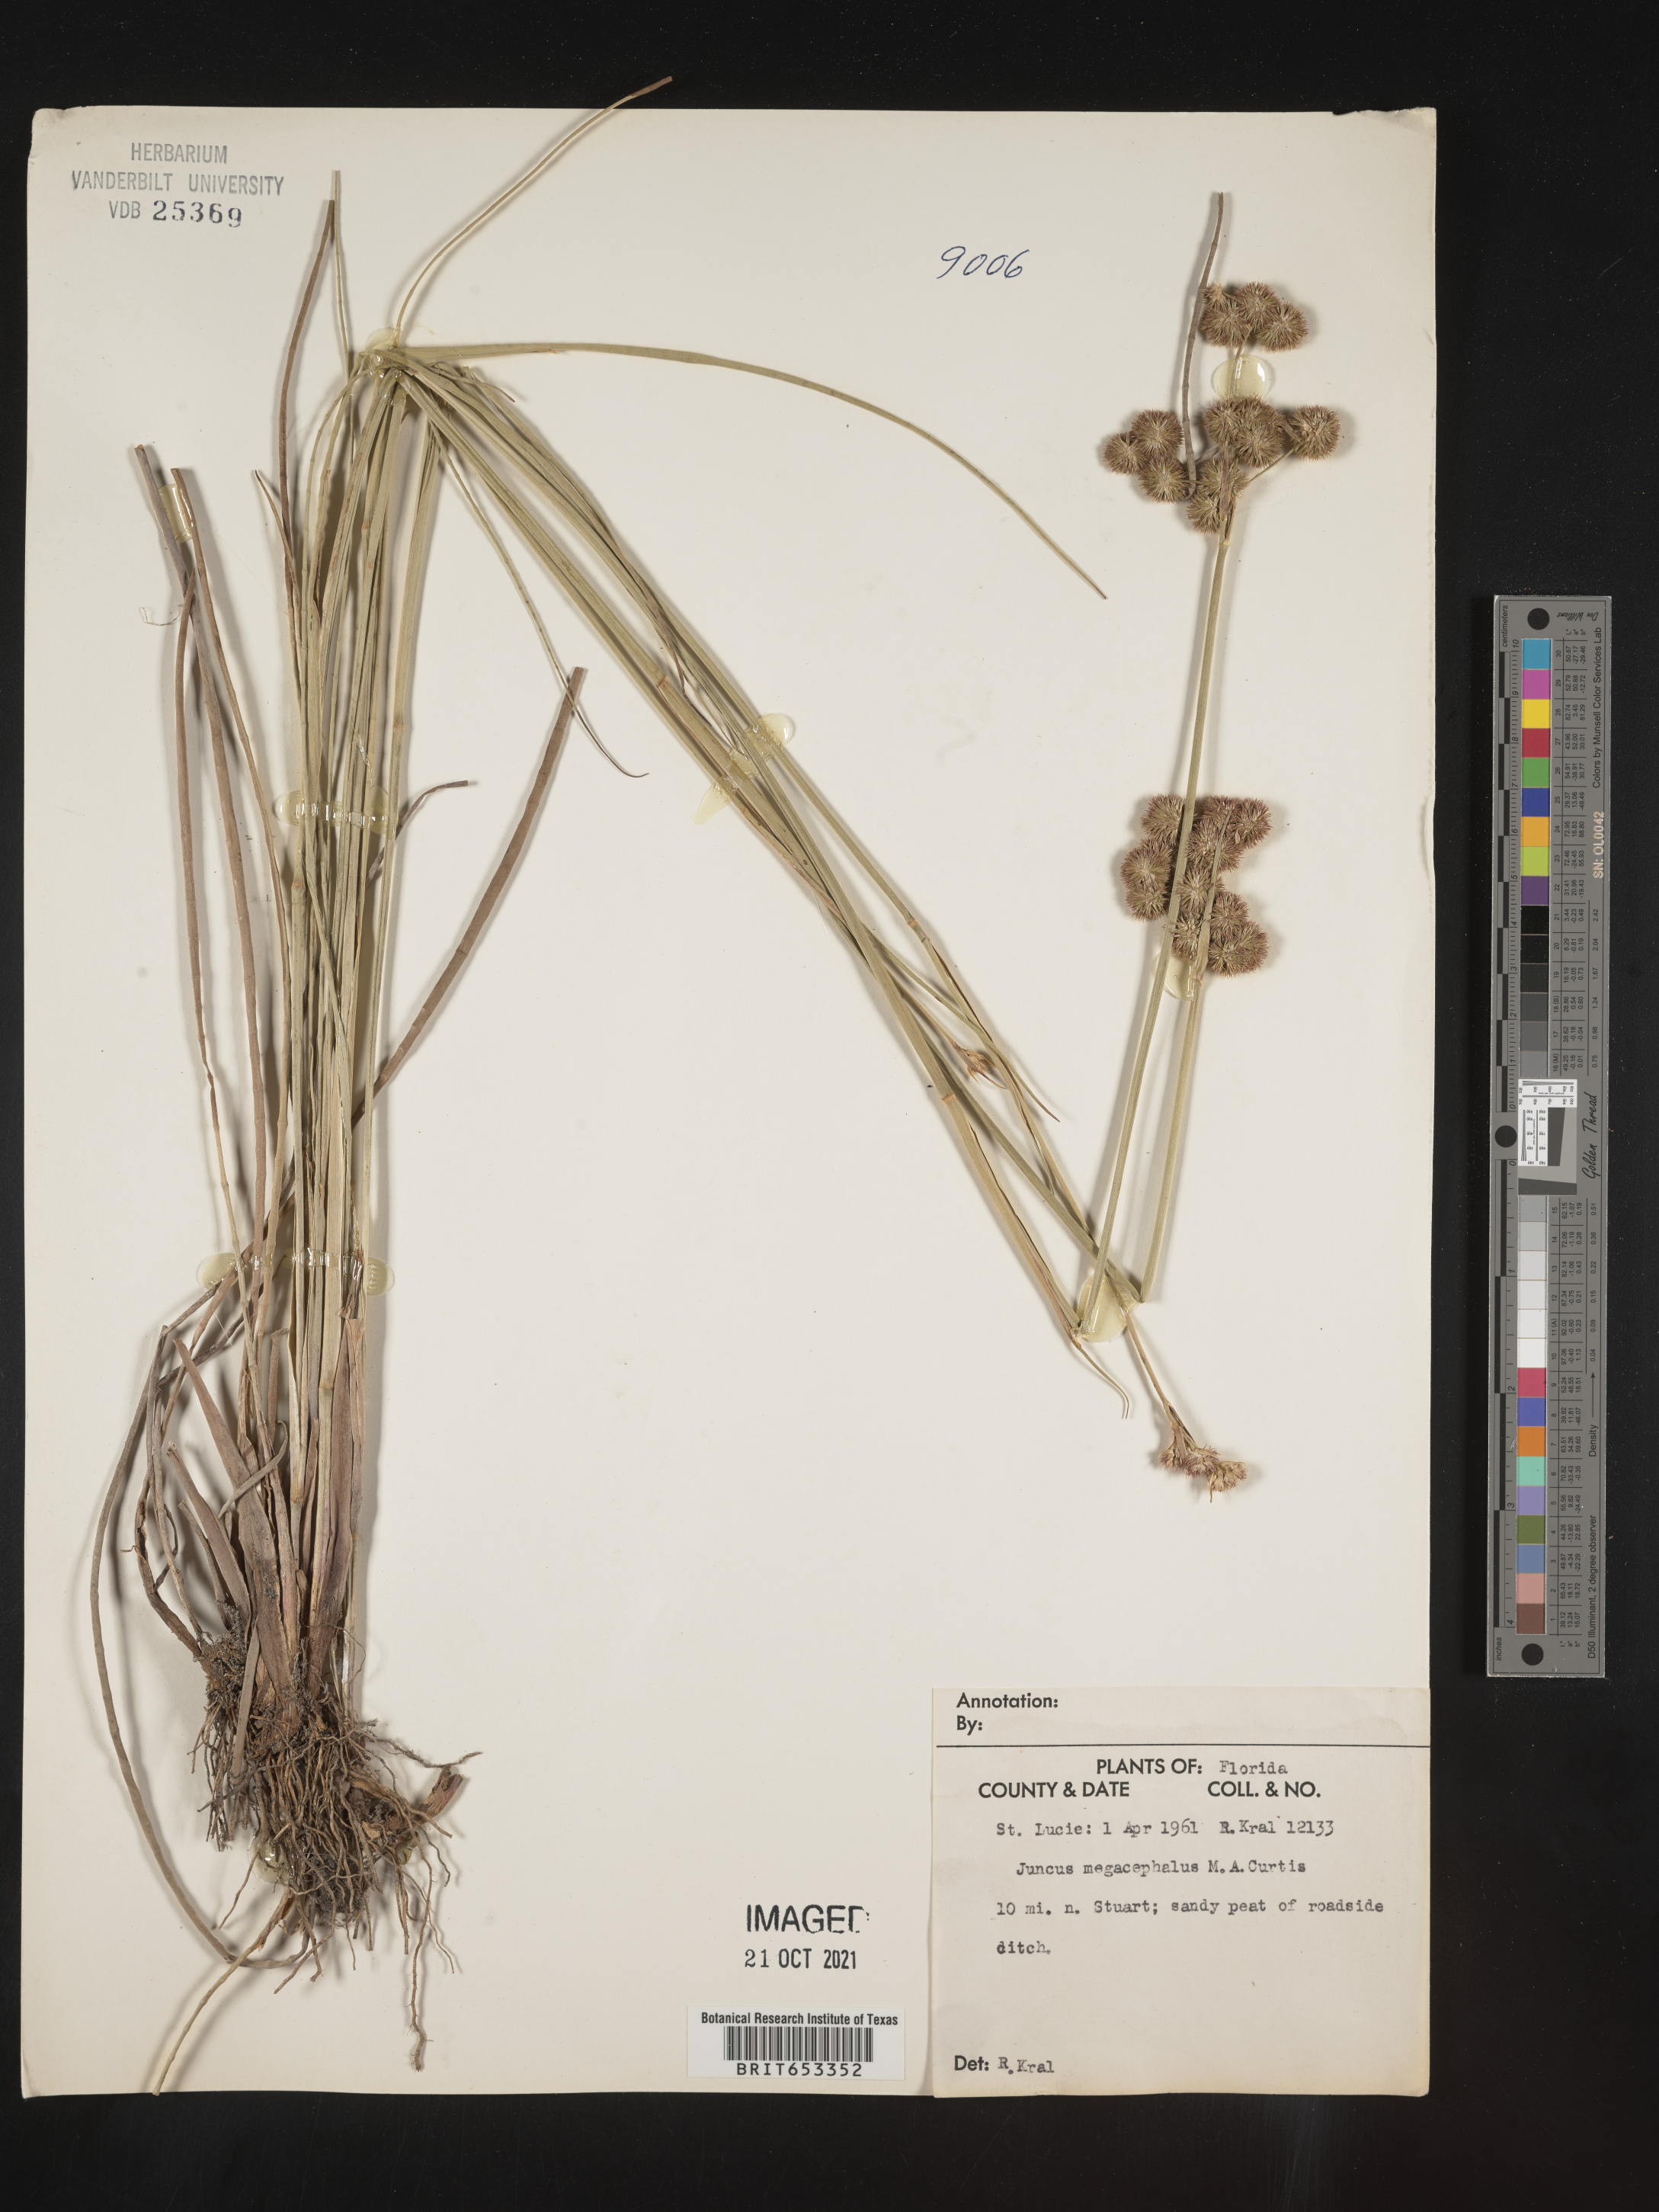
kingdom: Plantae
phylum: Tracheophyta
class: Liliopsida
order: Poales
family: Juncaceae
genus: Juncus
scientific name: Juncus megacephalus
